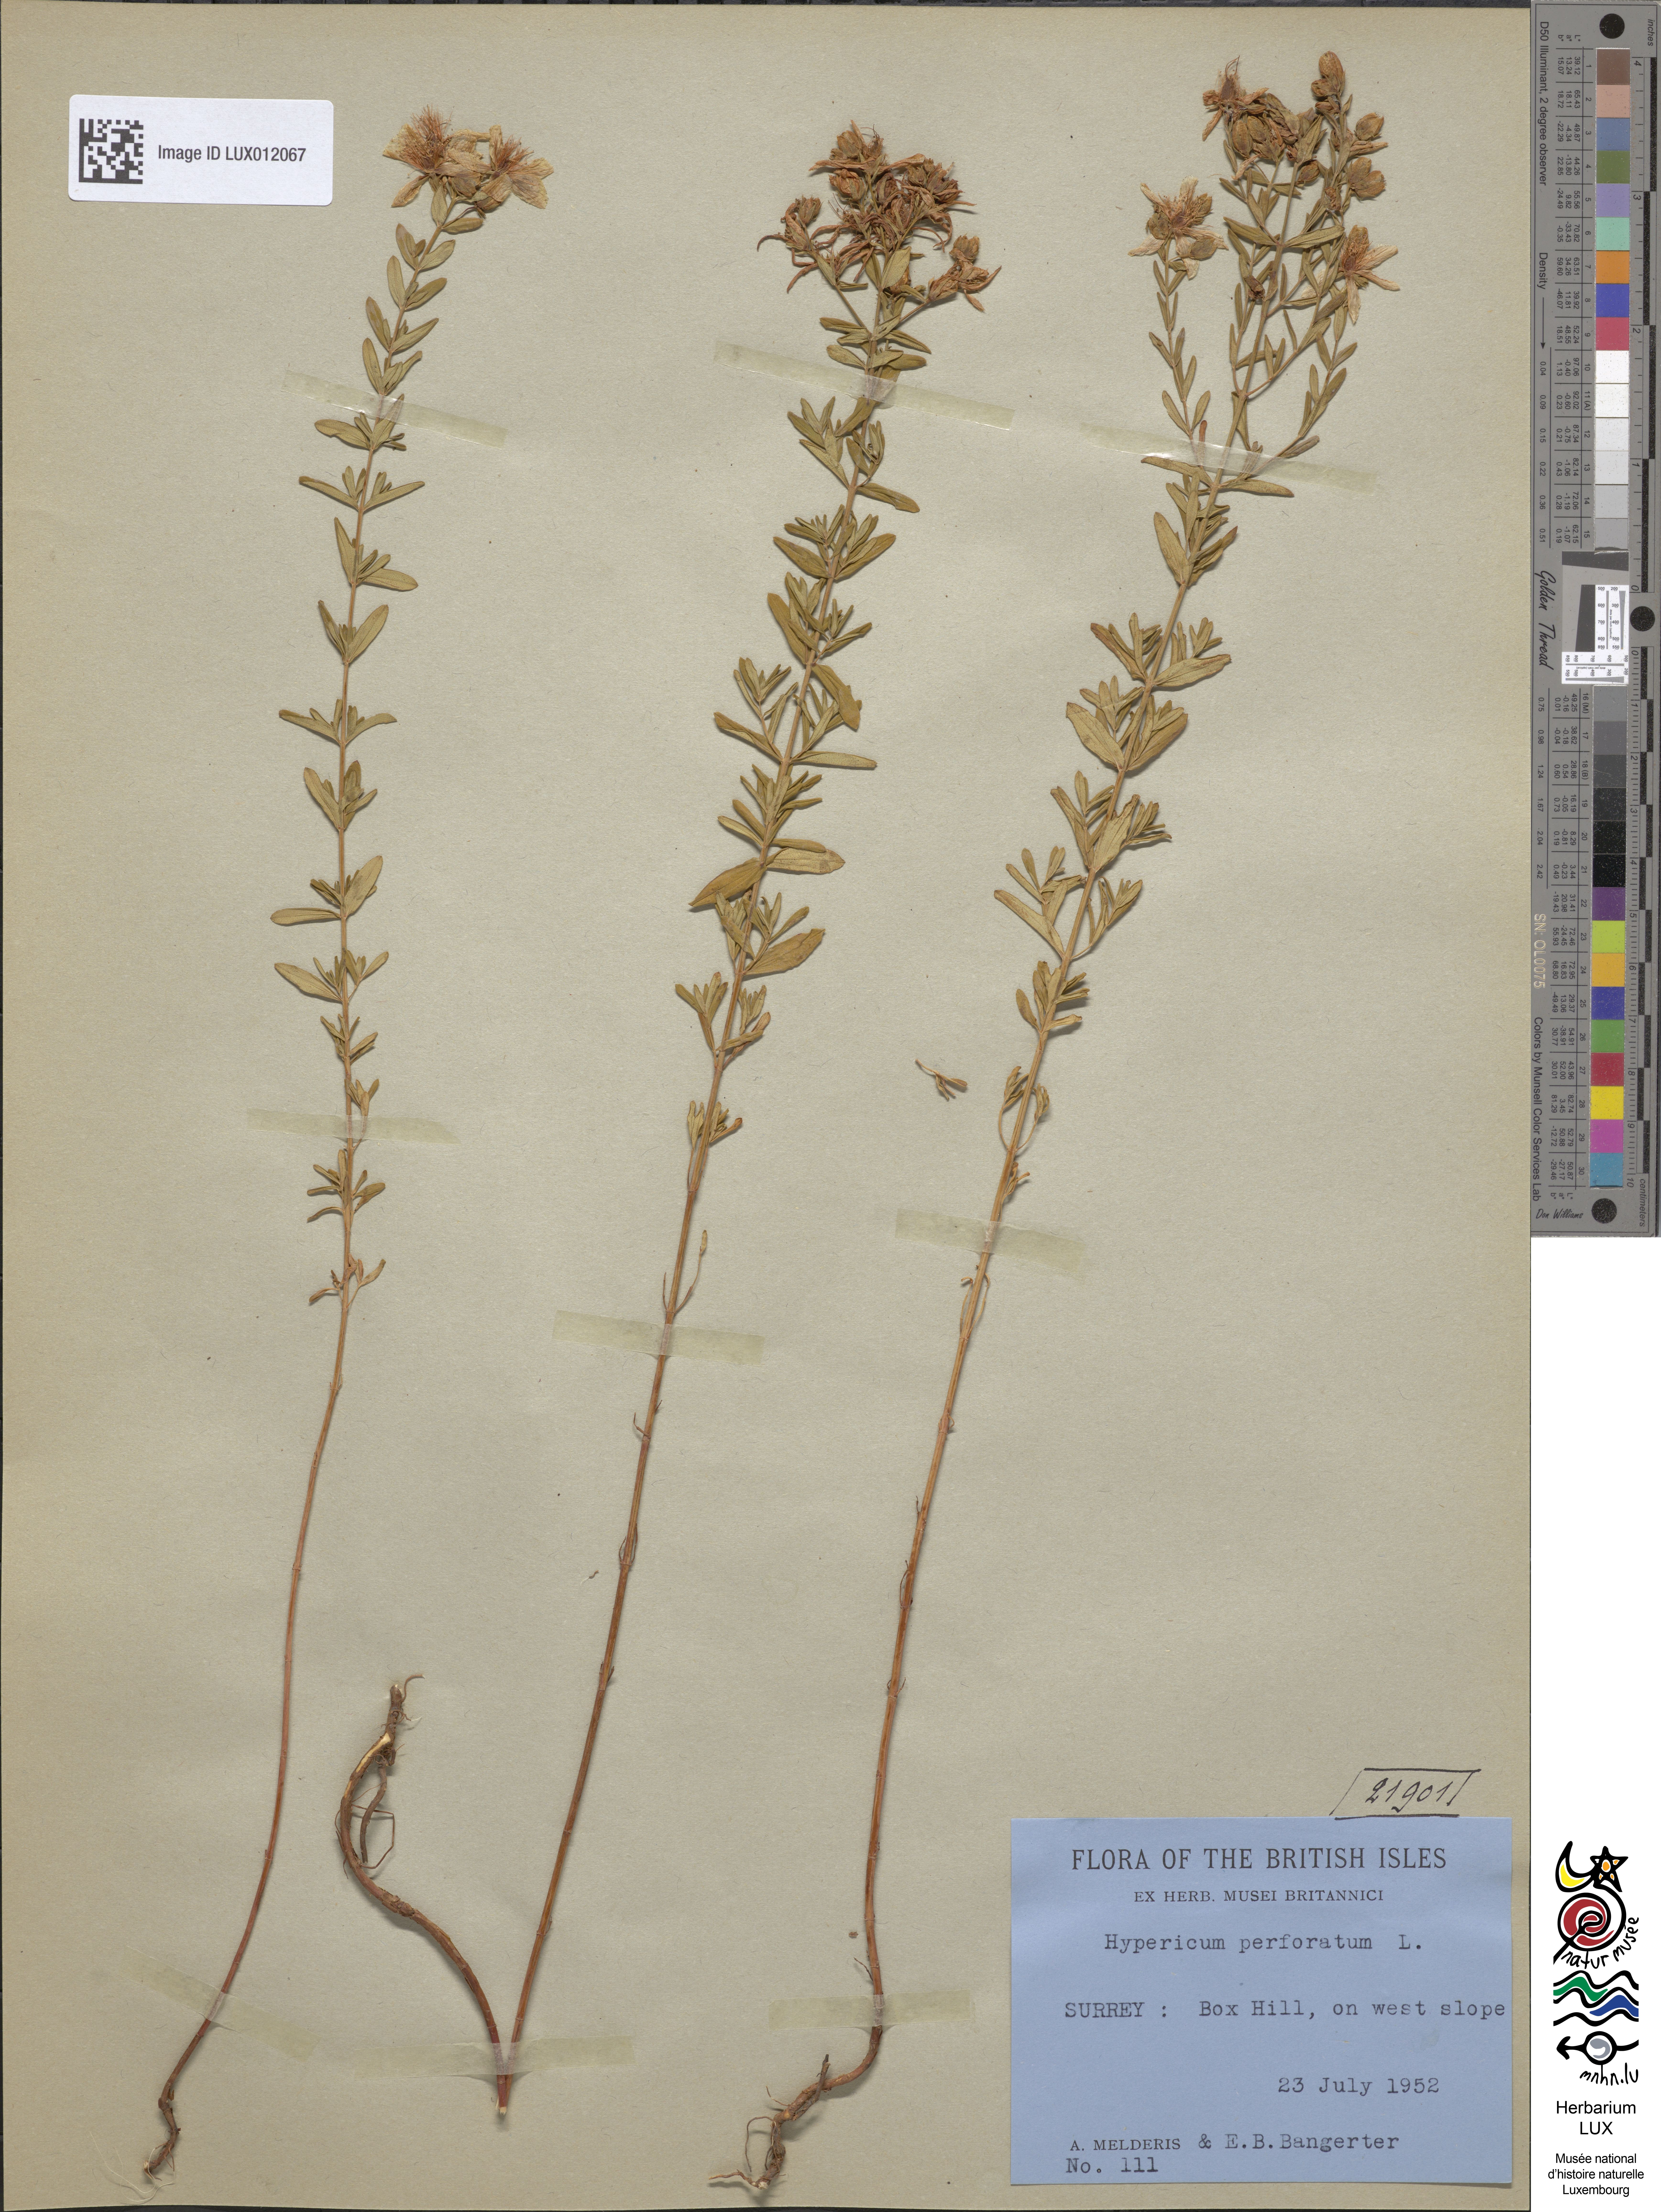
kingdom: Plantae
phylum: Tracheophyta
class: Magnoliopsida
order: Malpighiales
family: Hypericaceae
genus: Hypericum
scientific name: Hypericum perforatum
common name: Common st. johnswort
